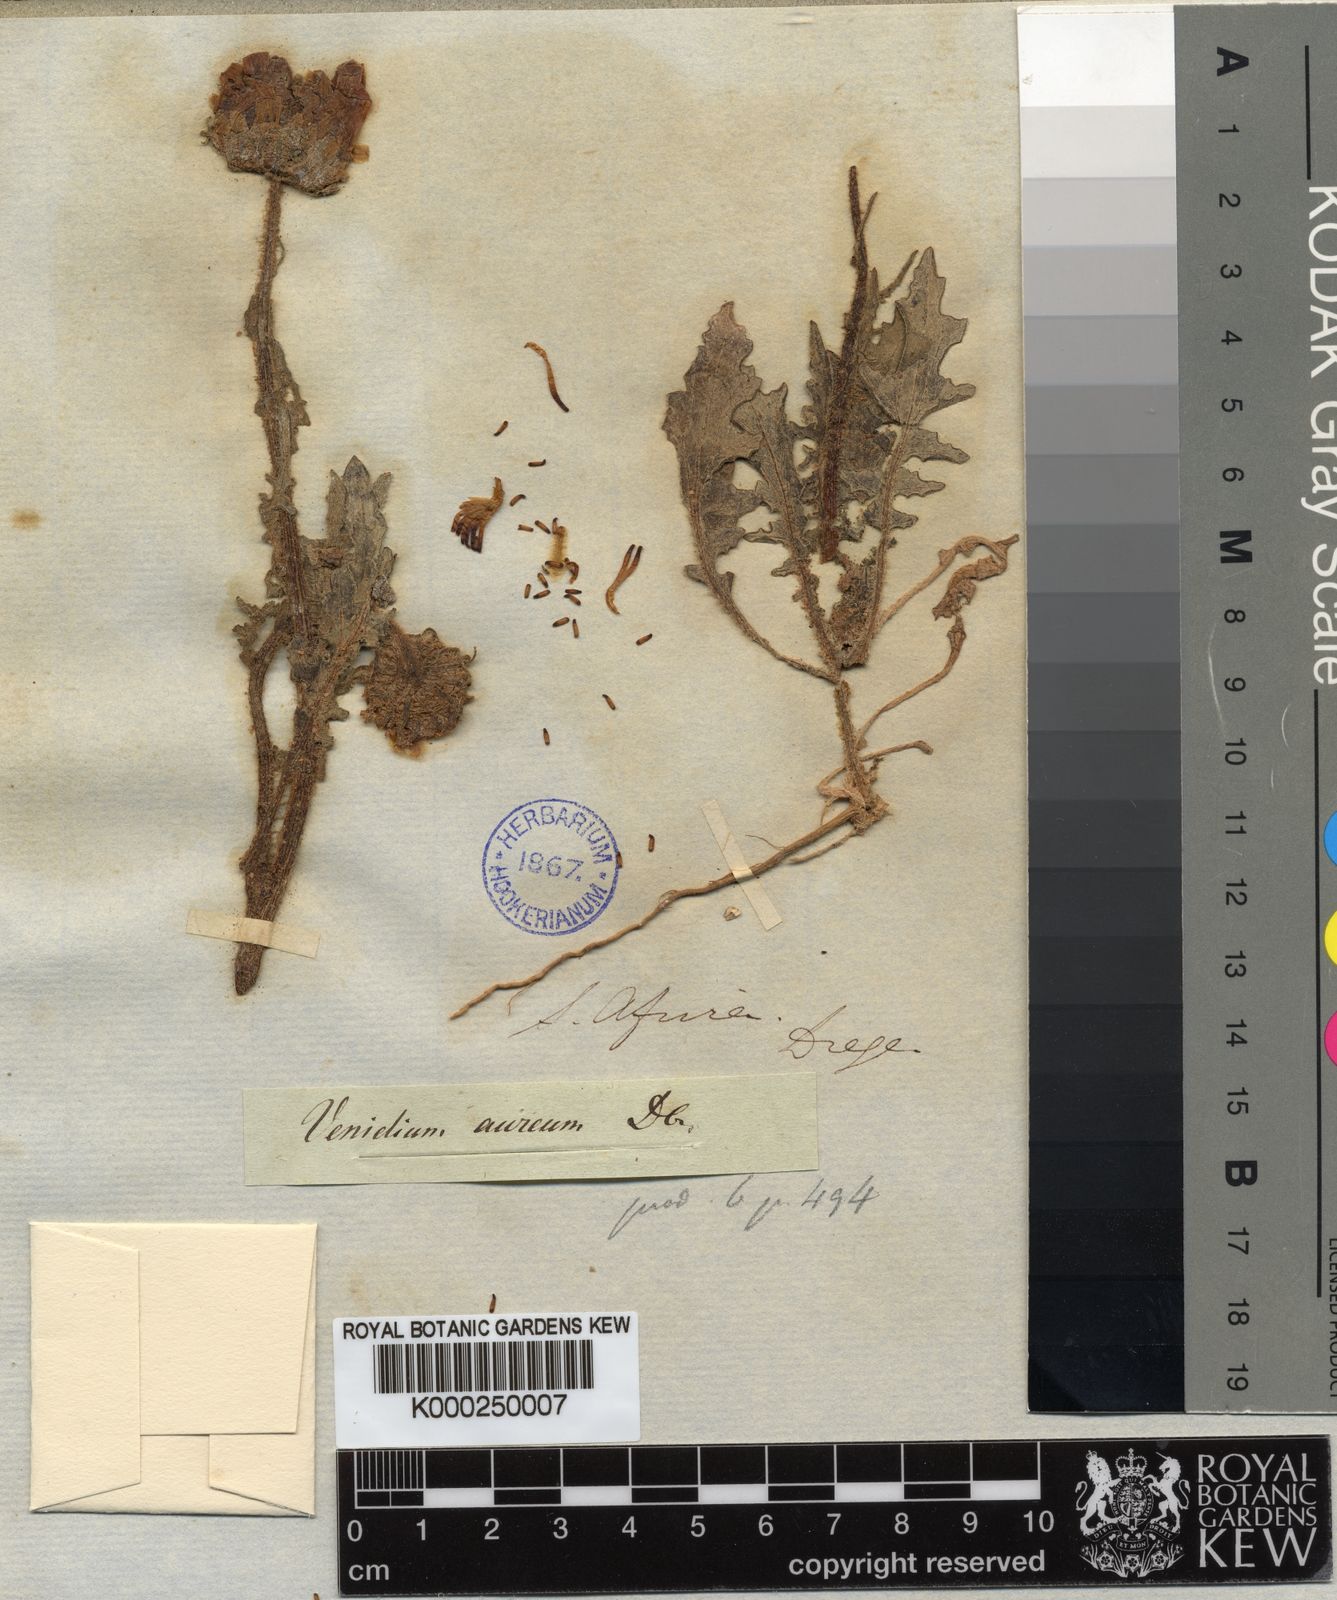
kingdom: Plantae
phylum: Tracheophyta
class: Magnoliopsida
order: Asterales
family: Asteraceae
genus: Arctotis
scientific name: Arctotis
